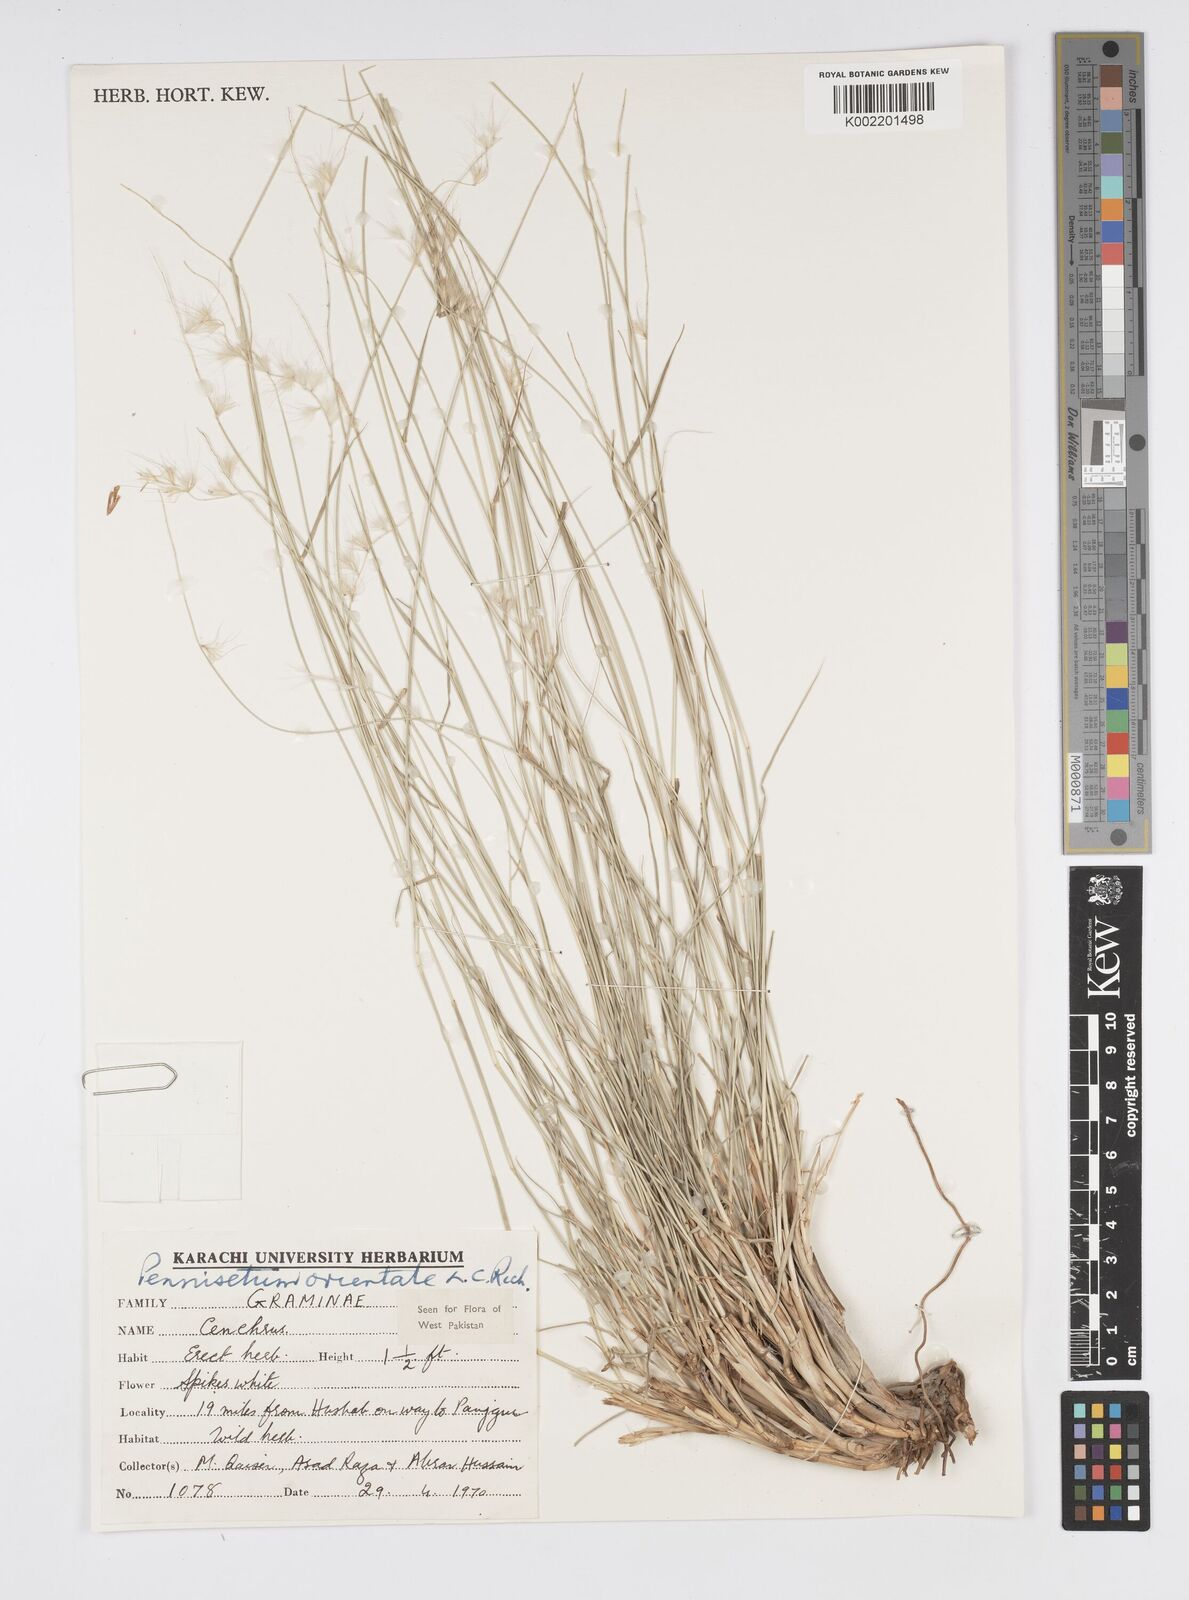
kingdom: Plantae
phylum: Tracheophyta
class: Liliopsida
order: Poales
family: Poaceae
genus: Cenchrus
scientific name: Cenchrus orientalis
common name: Oriental fountain grass
